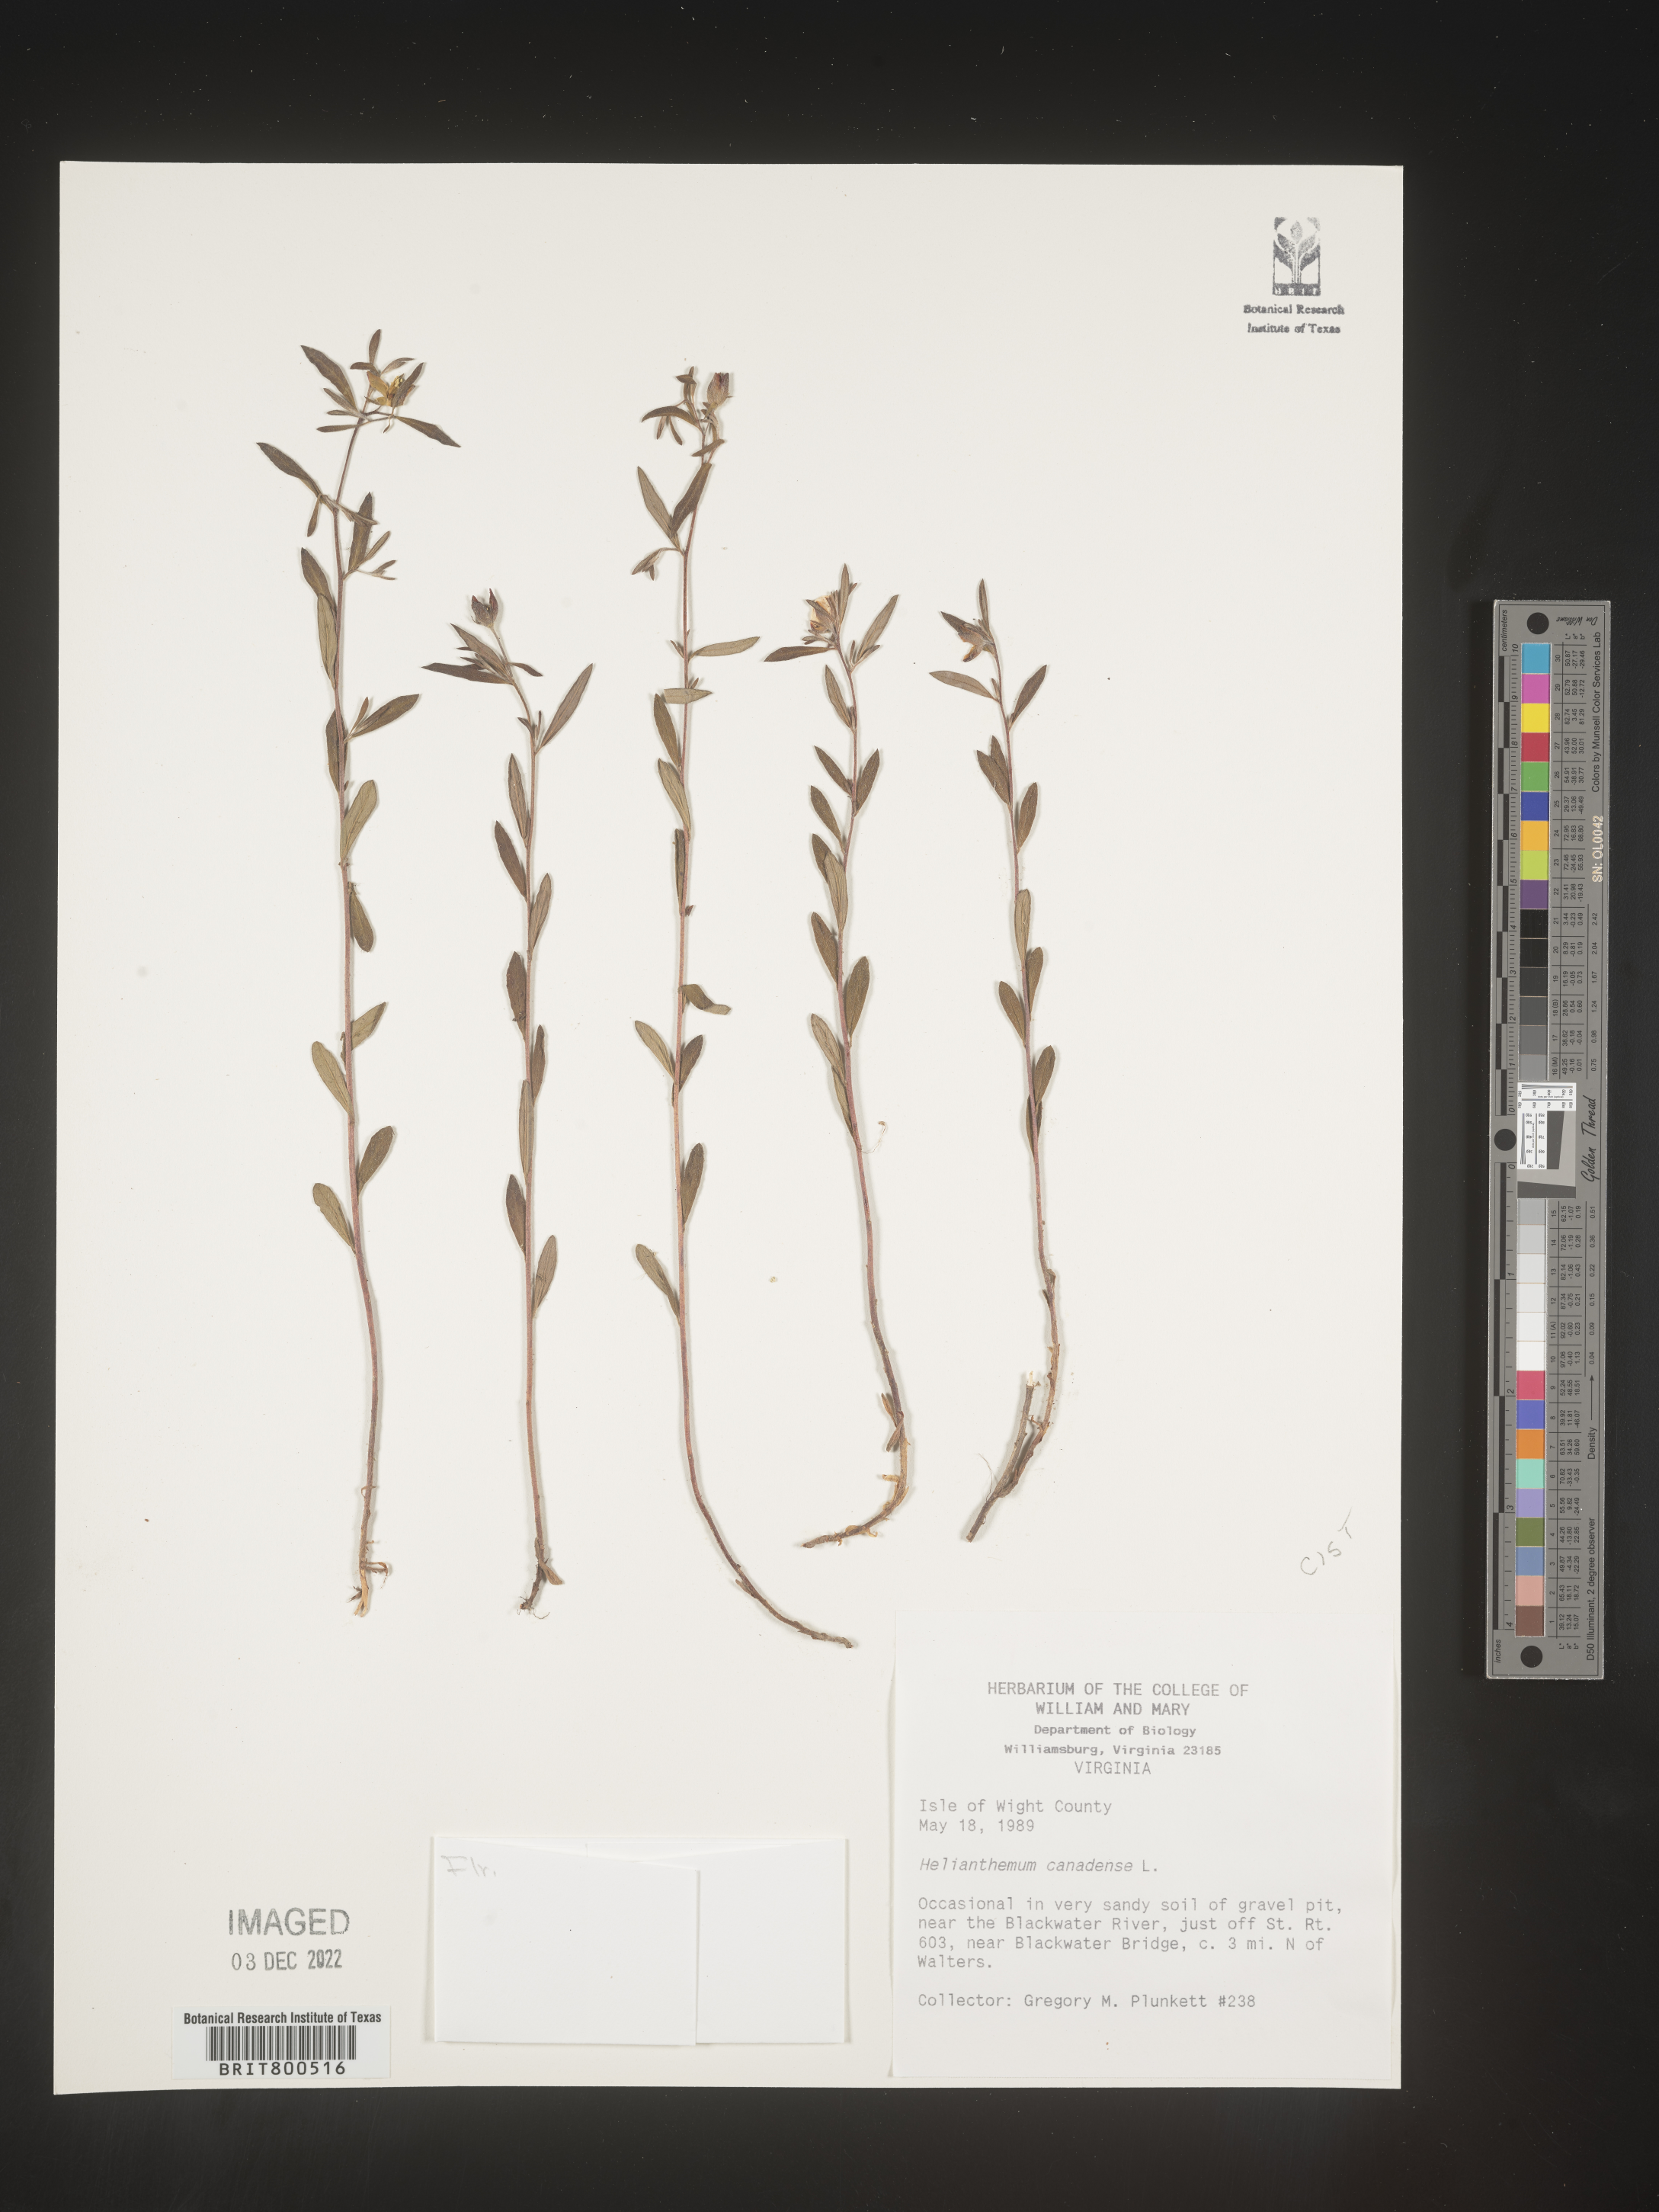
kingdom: Plantae
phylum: Tracheophyta
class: Magnoliopsida
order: Malvales
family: Cistaceae
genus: Crocanthemum
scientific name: Crocanthemum canadense
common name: Canada frostweed
